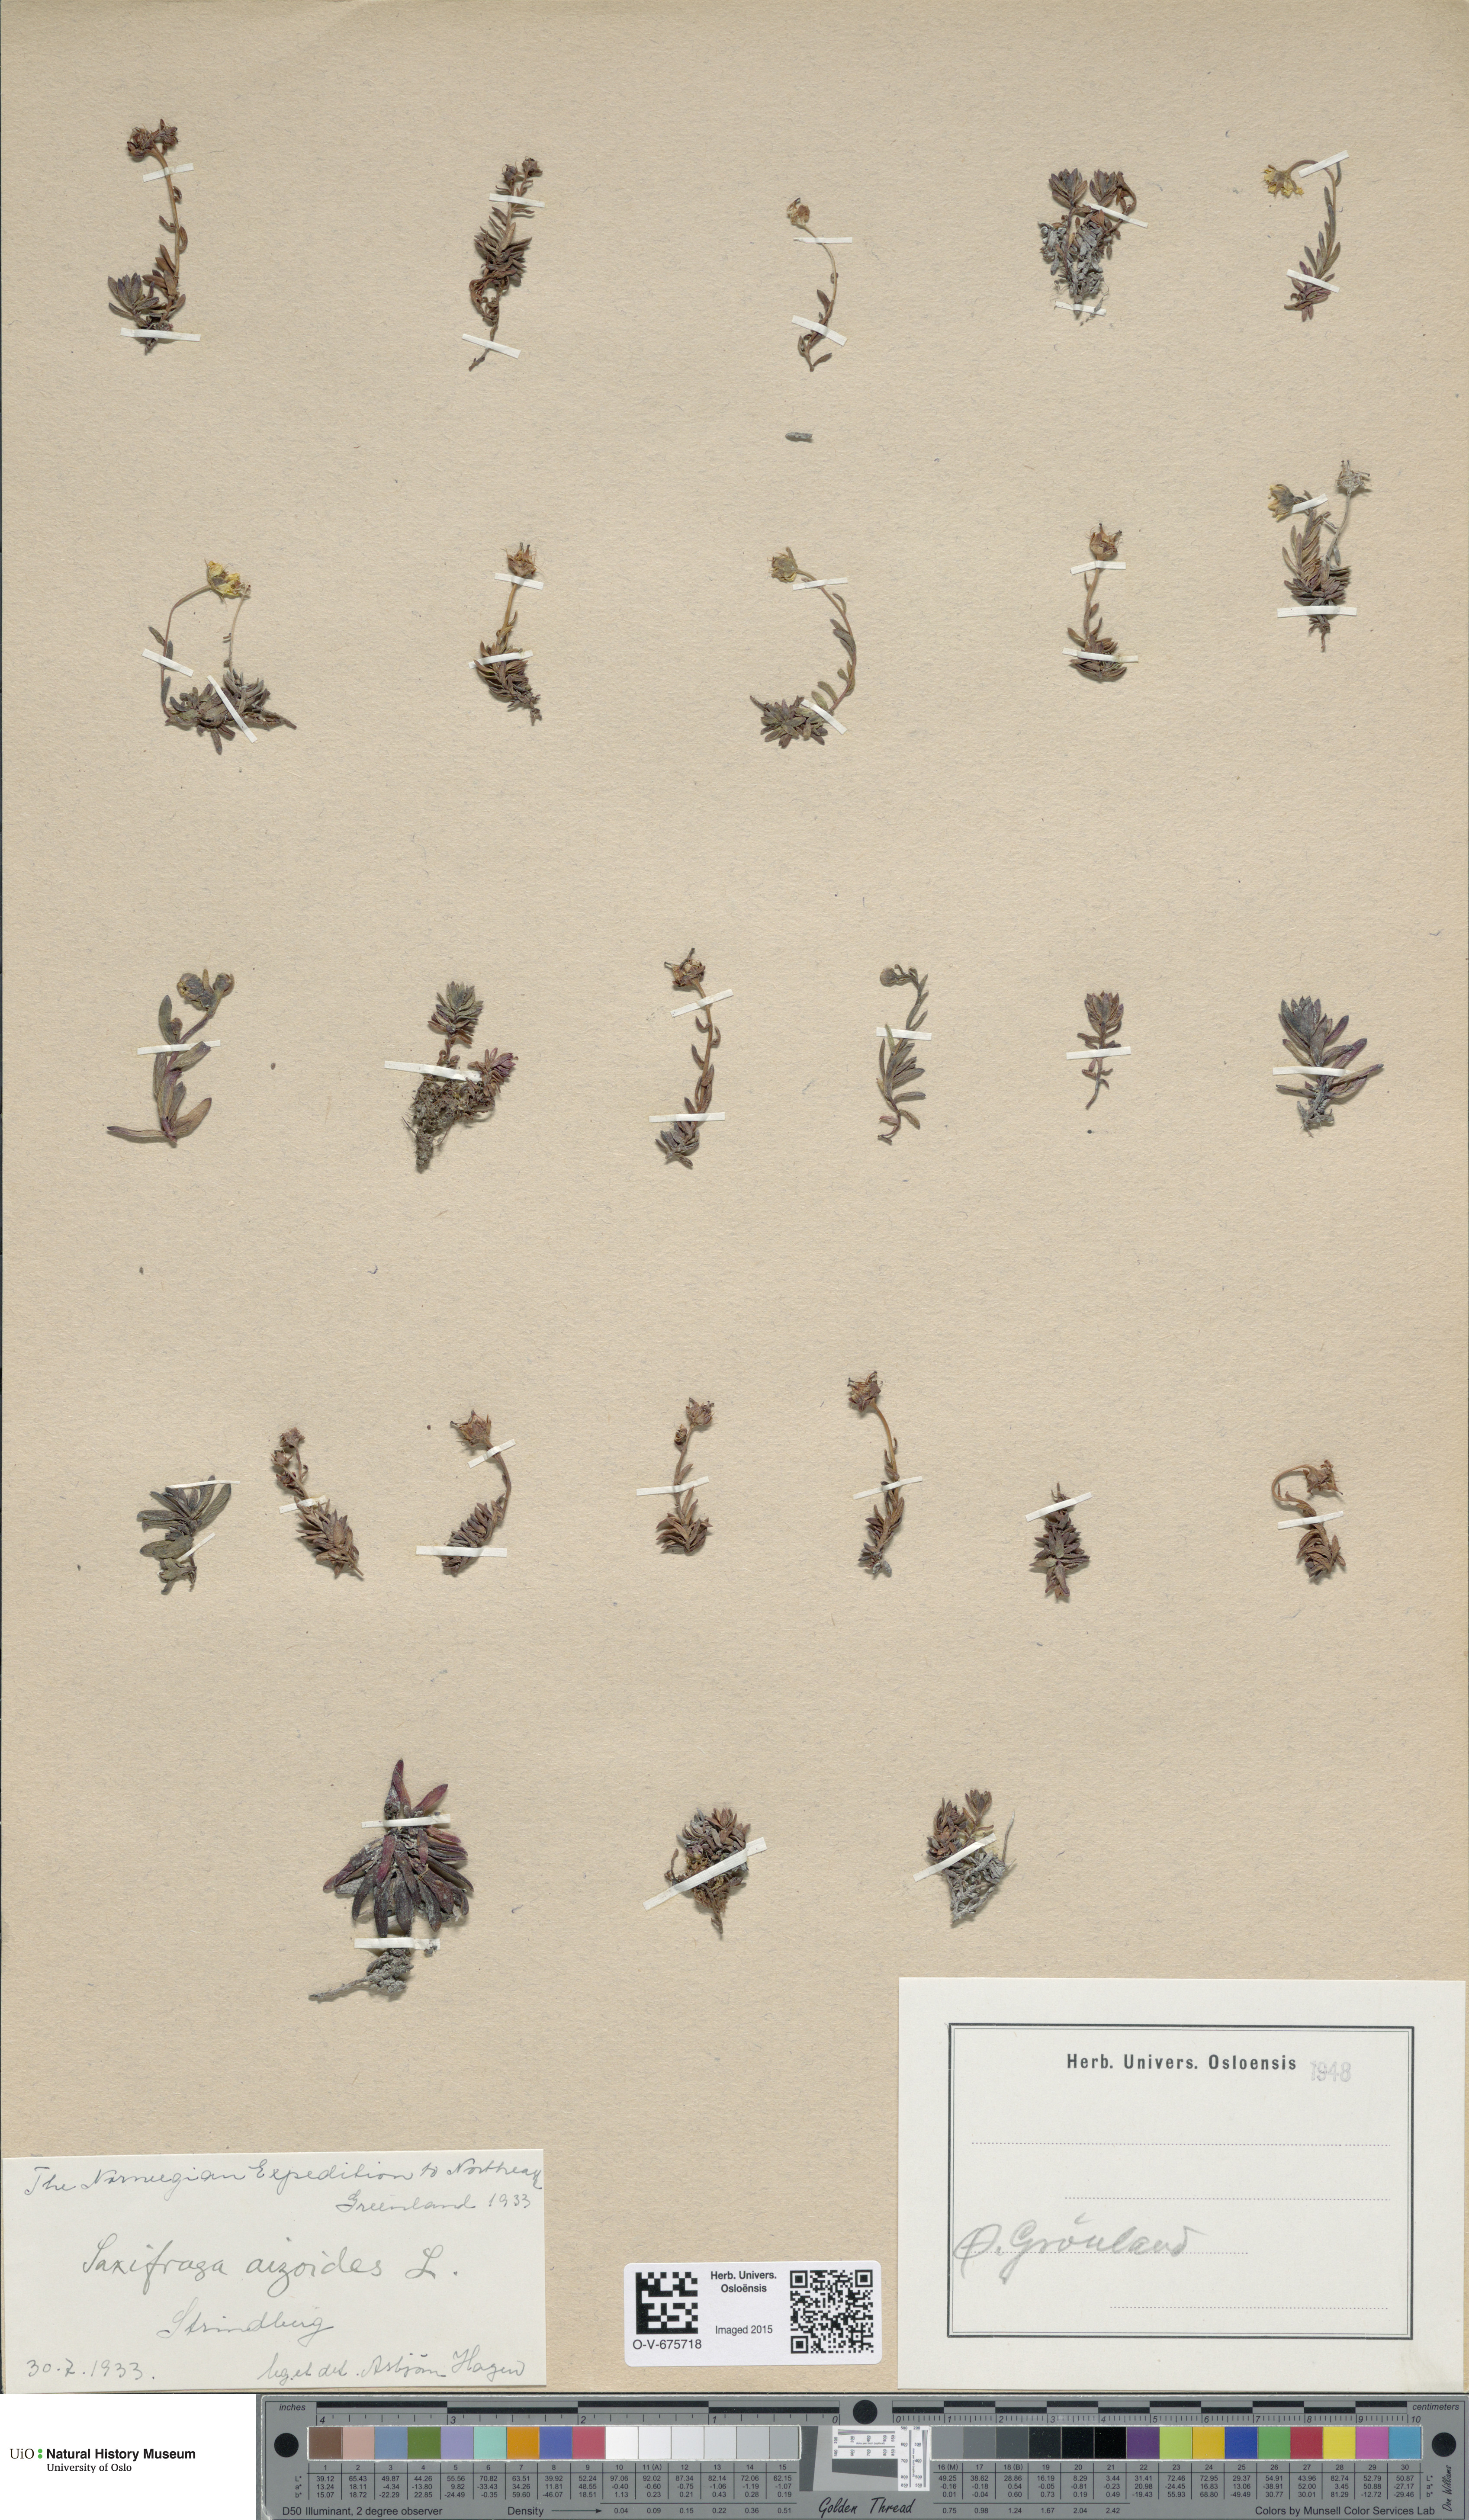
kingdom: Plantae
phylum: Tracheophyta
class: Magnoliopsida
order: Saxifragales
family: Saxifragaceae
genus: Saxifraga
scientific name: Saxifraga aizoides
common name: Yellow mountain saxifrage
